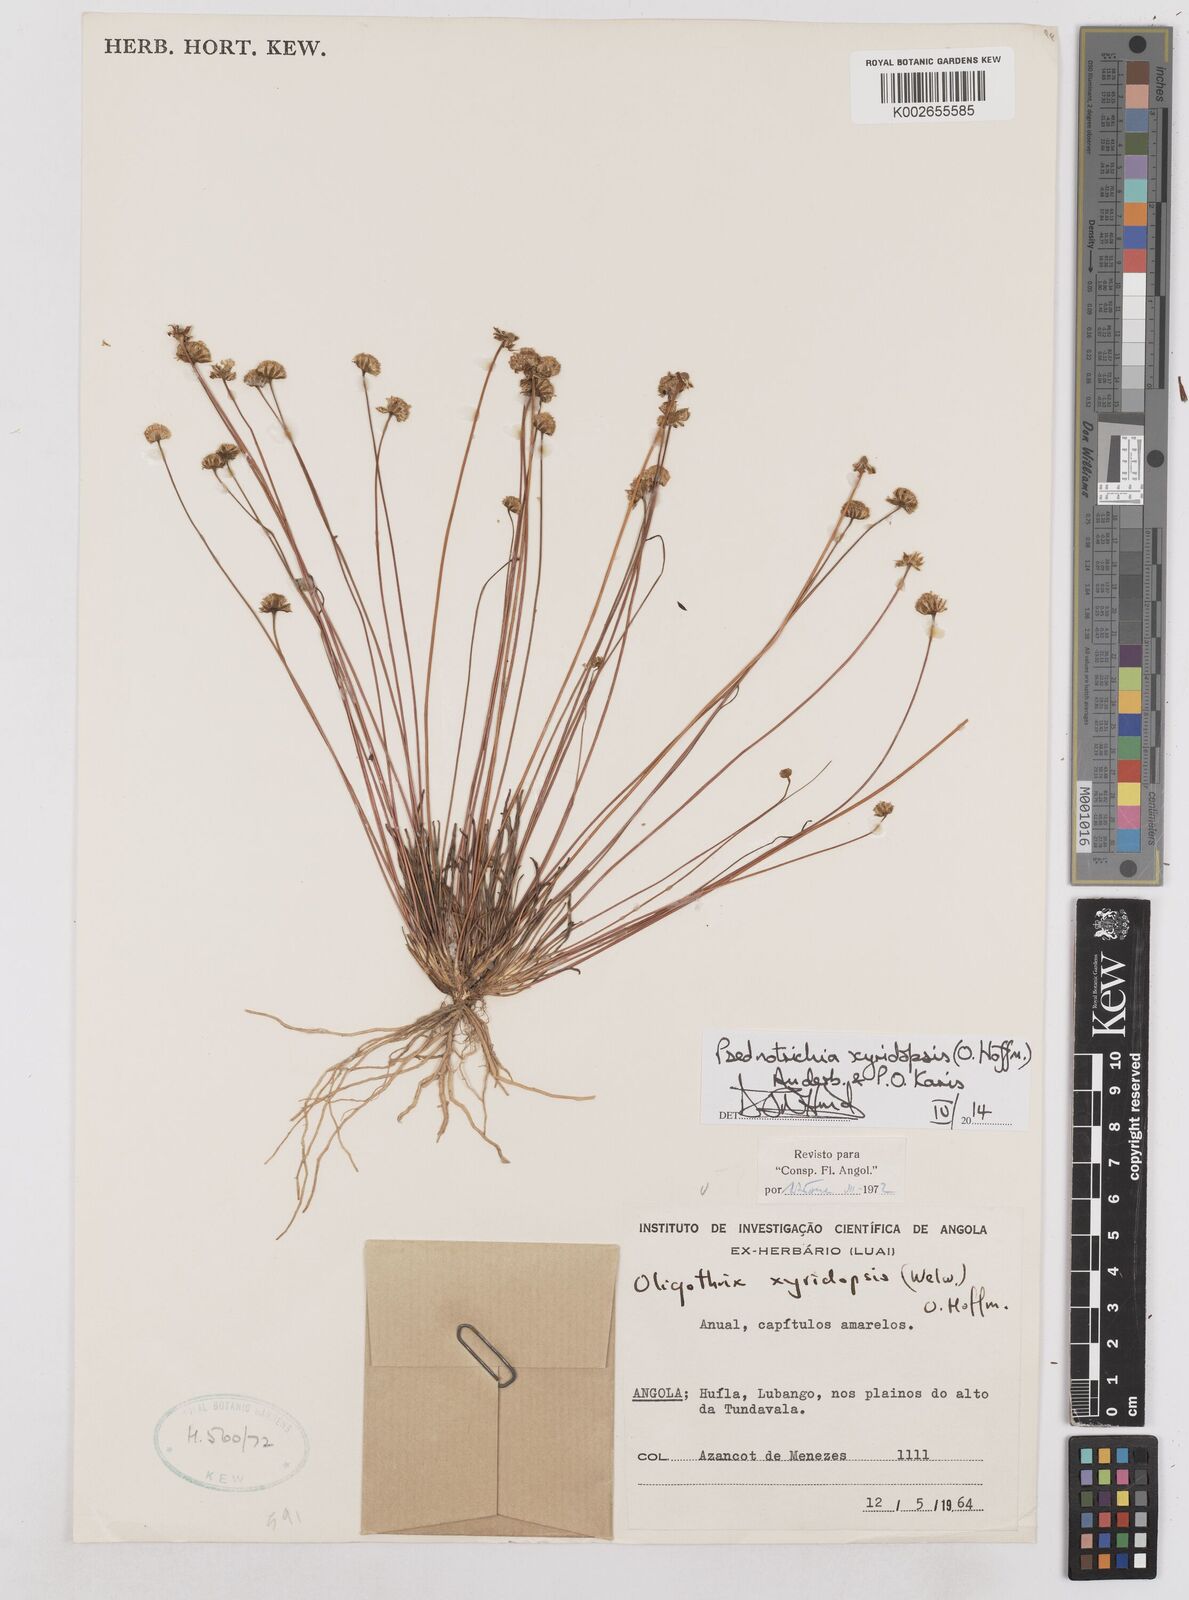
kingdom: Plantae
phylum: Tracheophyta
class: Magnoliopsida
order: Asterales
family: Asteraceae
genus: Psednotrichia
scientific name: Psednotrichia xyridopsis
